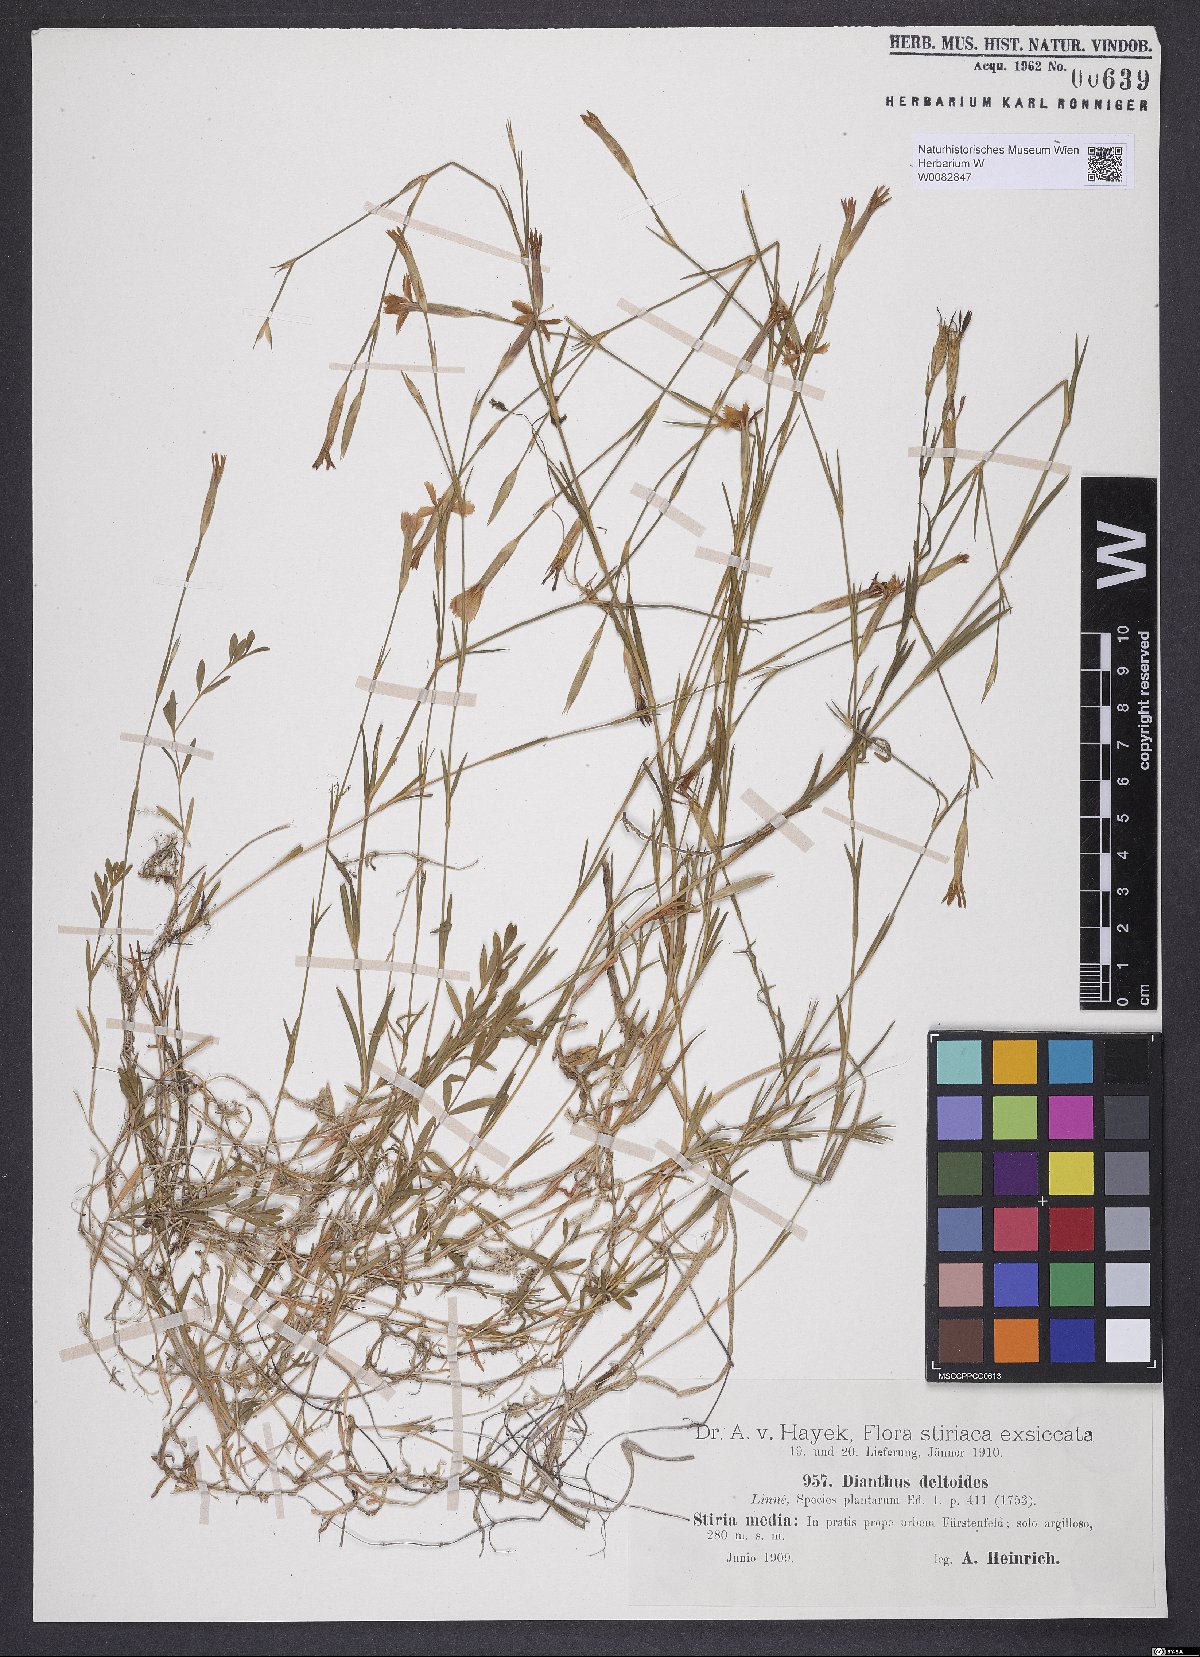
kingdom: Plantae
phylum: Tracheophyta
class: Magnoliopsida
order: Caryophyllales
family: Caryophyllaceae
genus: Dianthus
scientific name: Dianthus deltoides
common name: Maiden pink
